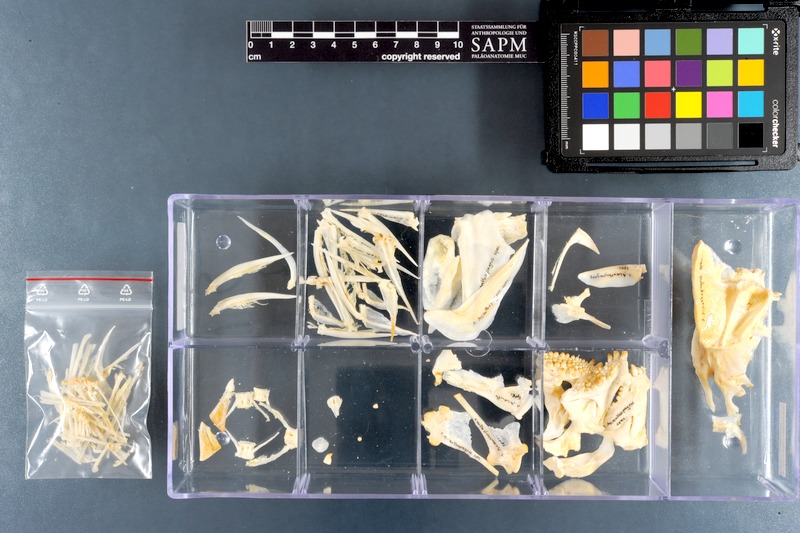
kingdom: Animalia
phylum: Chordata
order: Perciformes
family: Sparidae
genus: Acanthopagrus
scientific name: Acanthopagrus
